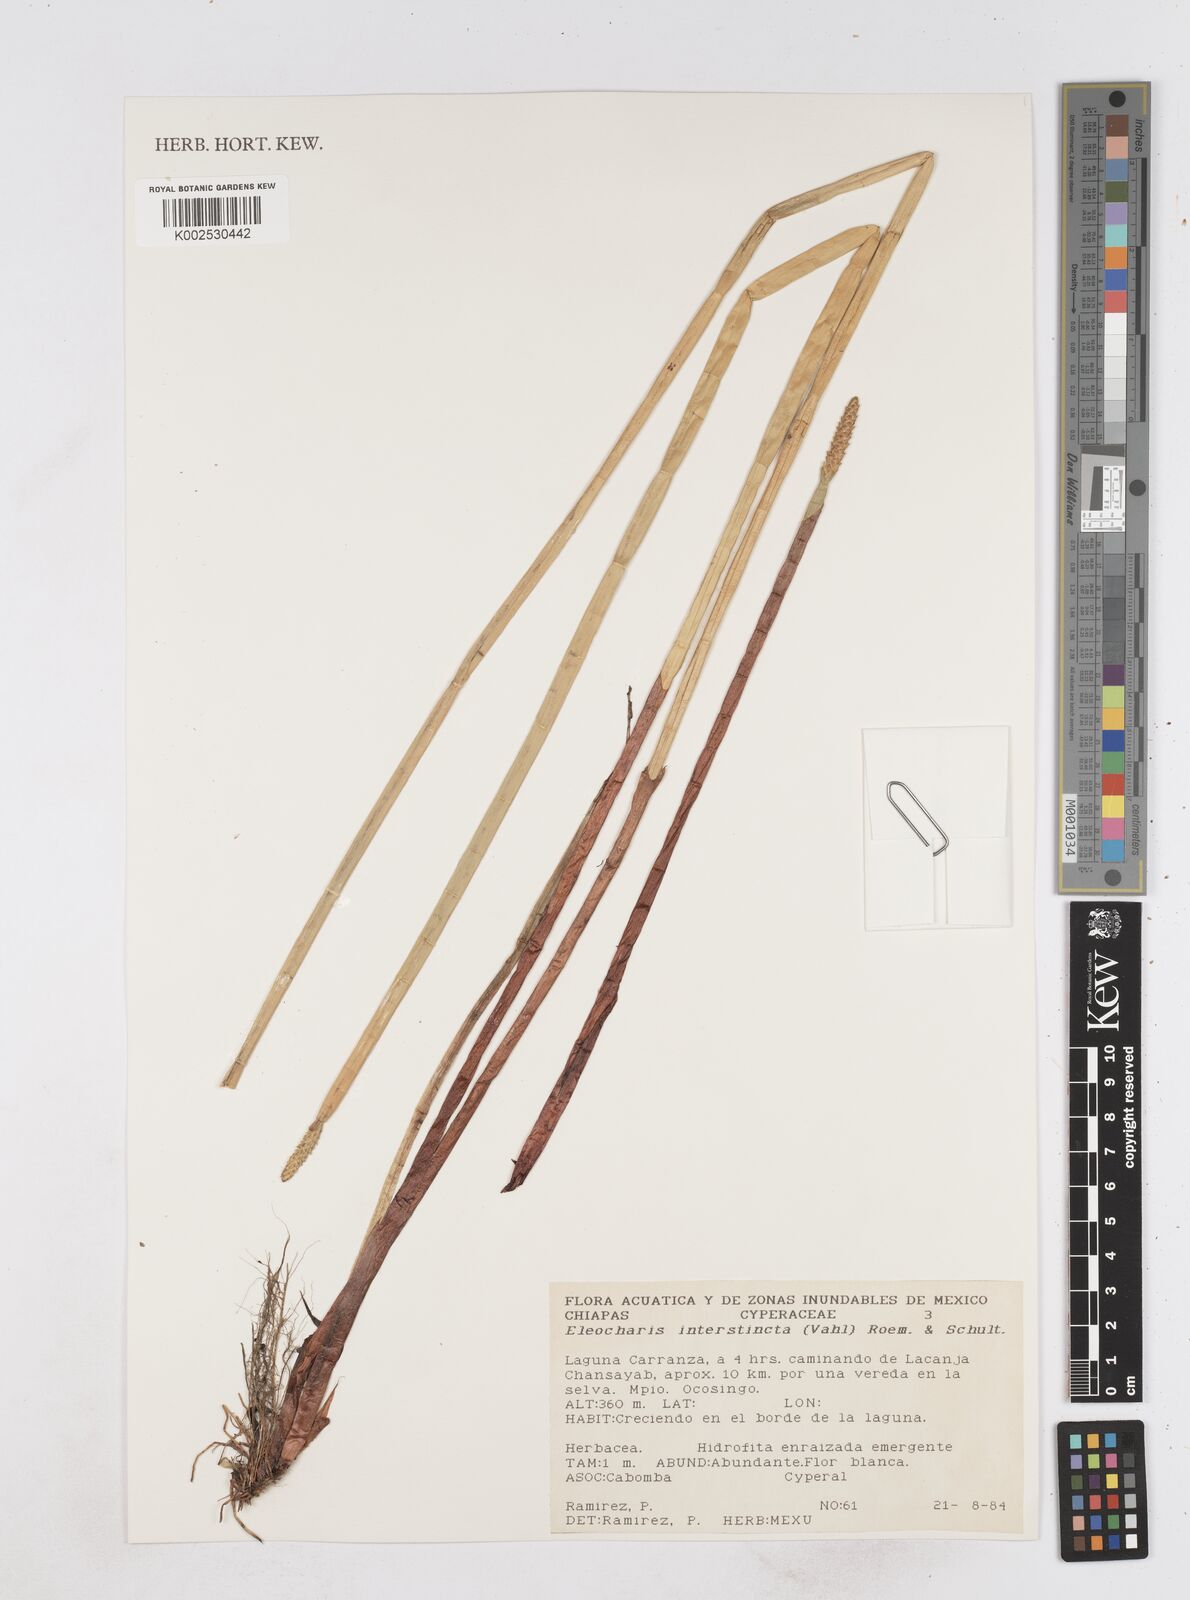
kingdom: Plantae
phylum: Tracheophyta
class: Liliopsida
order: Poales
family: Cyperaceae
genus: Eleocharis
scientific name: Eleocharis interstincta
